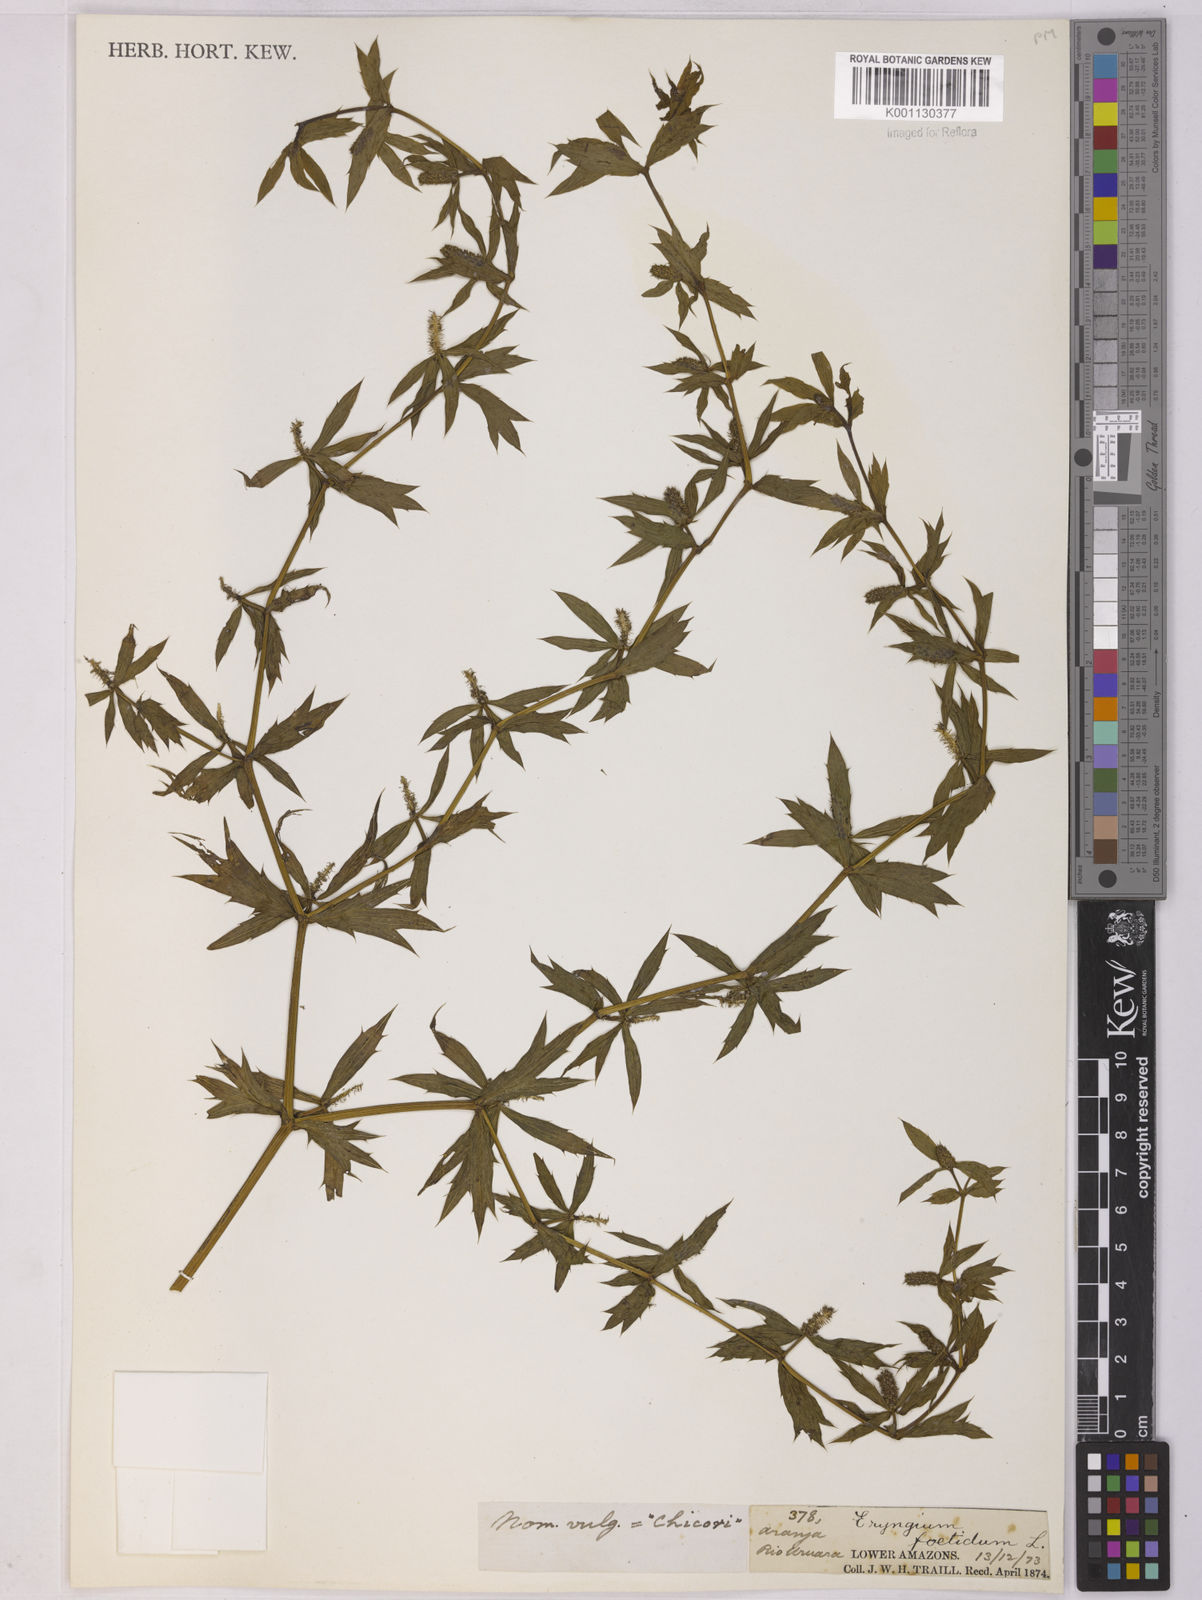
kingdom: Plantae
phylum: Tracheophyta
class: Magnoliopsida
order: Apiales
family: Apiaceae
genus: Eryngium
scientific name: Eryngium foetidum
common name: Fitweed
